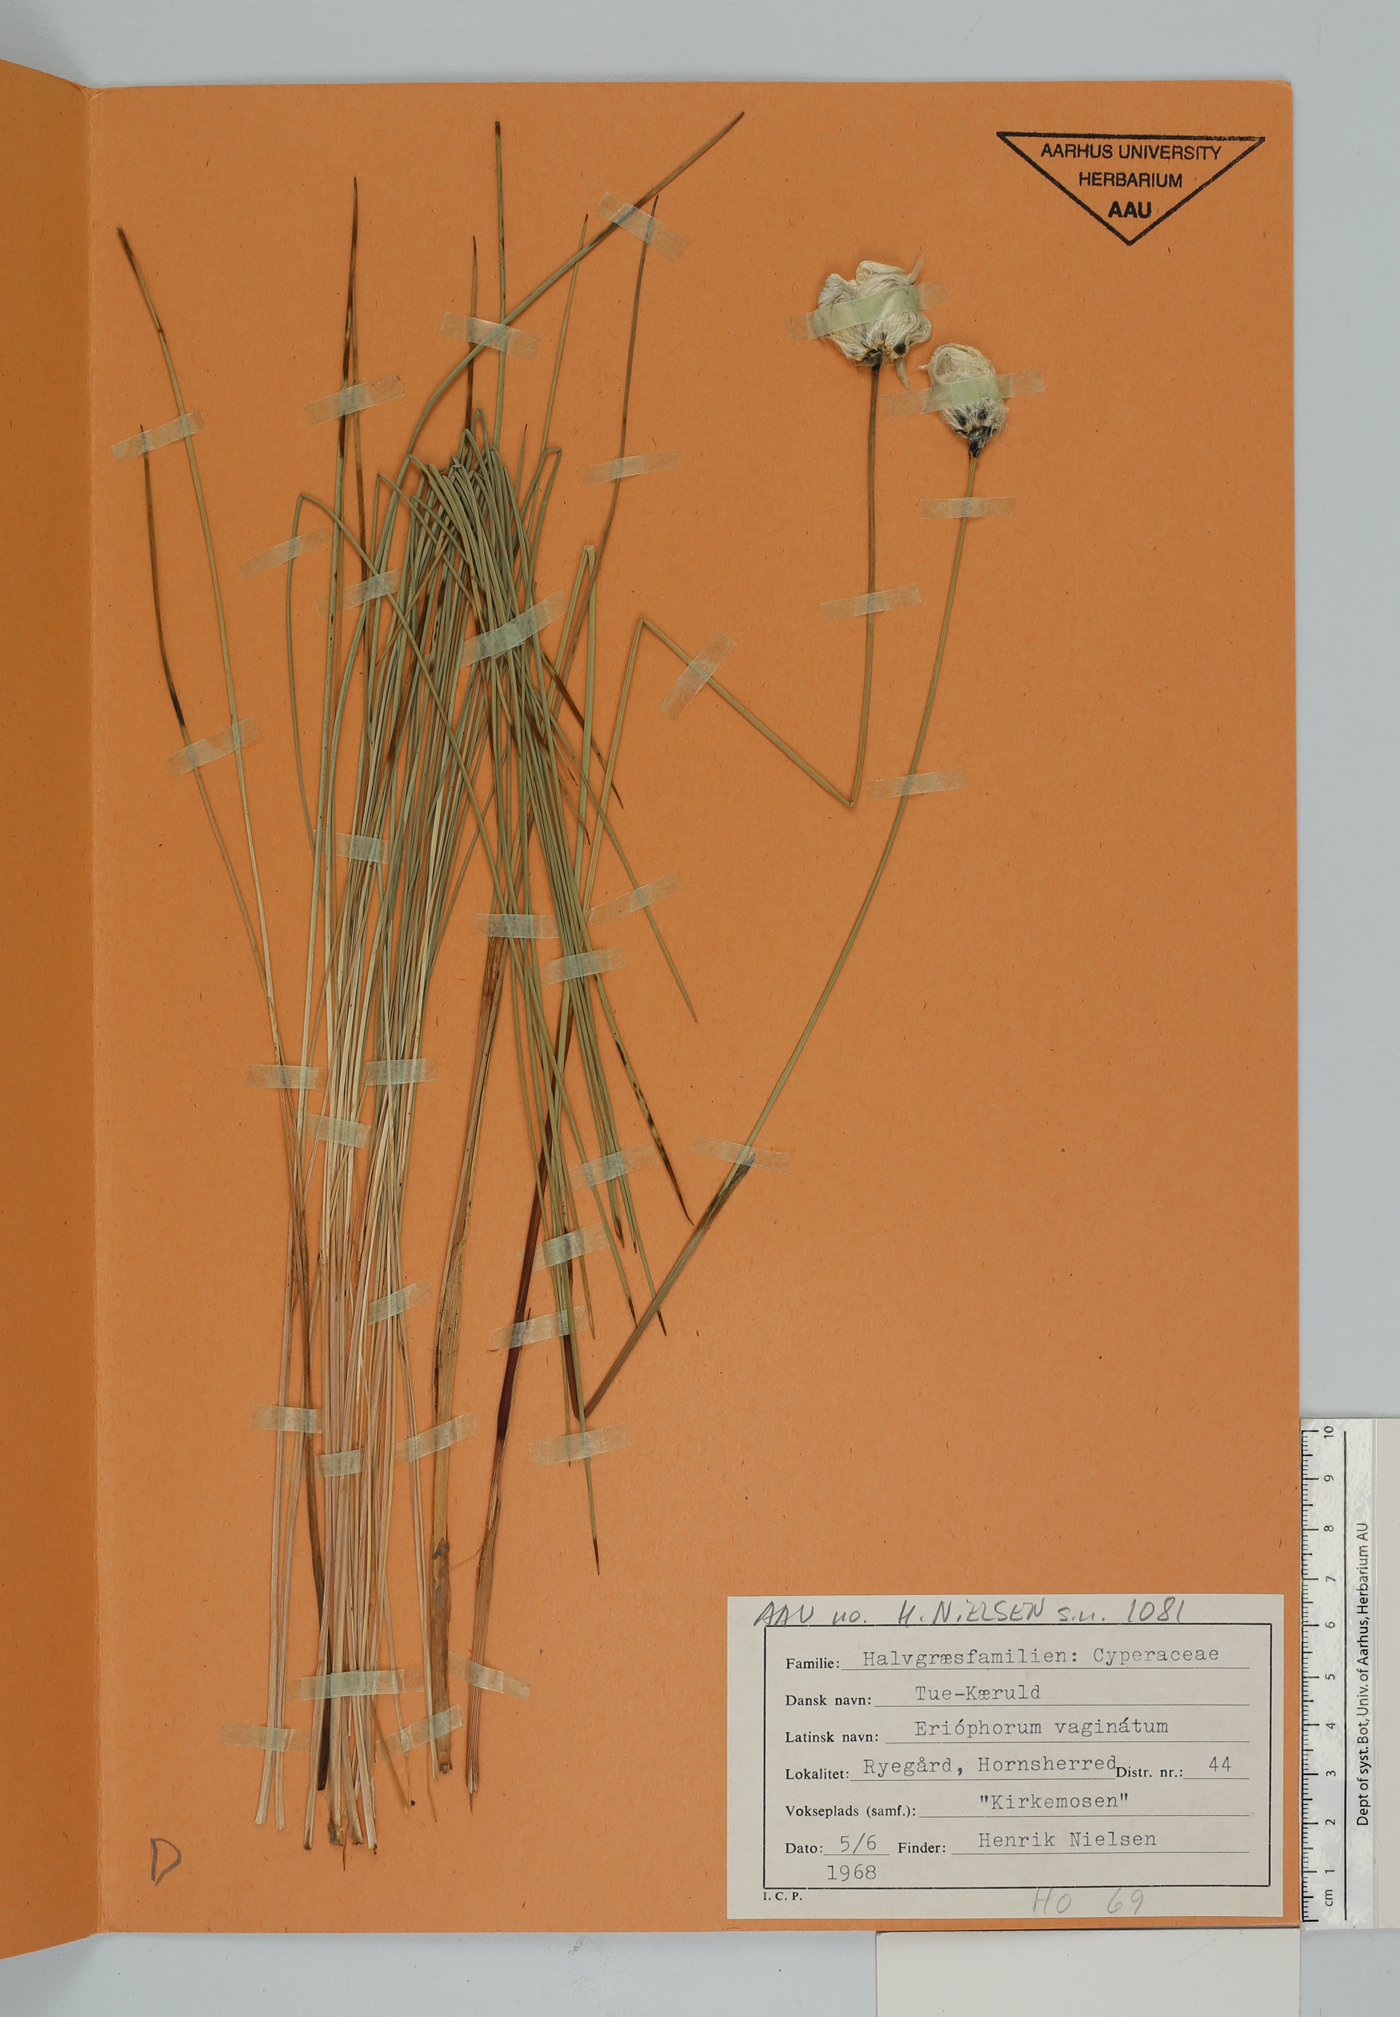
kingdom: Plantae
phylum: Tracheophyta
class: Liliopsida
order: Poales
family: Cyperaceae
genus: Eriophorum
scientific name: Eriophorum vaginatum
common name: Hare's-tail cottongrass
